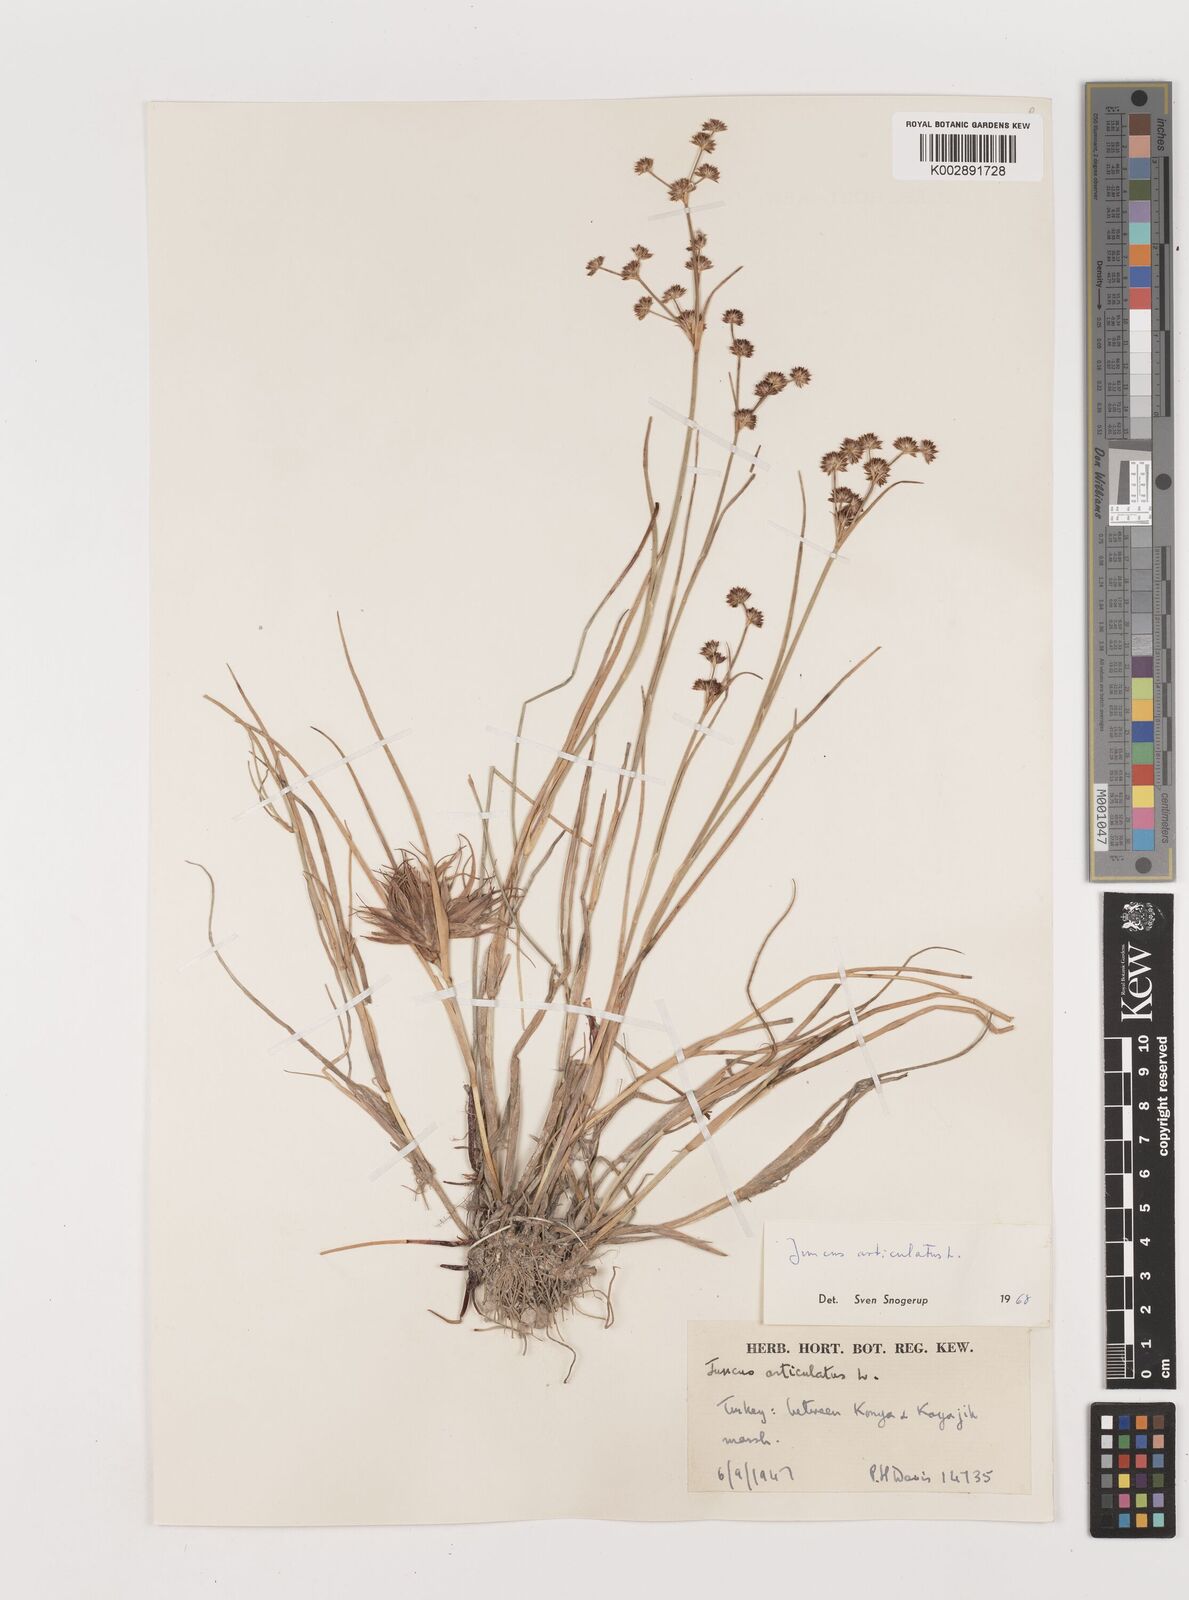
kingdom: Plantae
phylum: Tracheophyta
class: Liliopsida
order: Poales
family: Juncaceae
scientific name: Juncaceae
